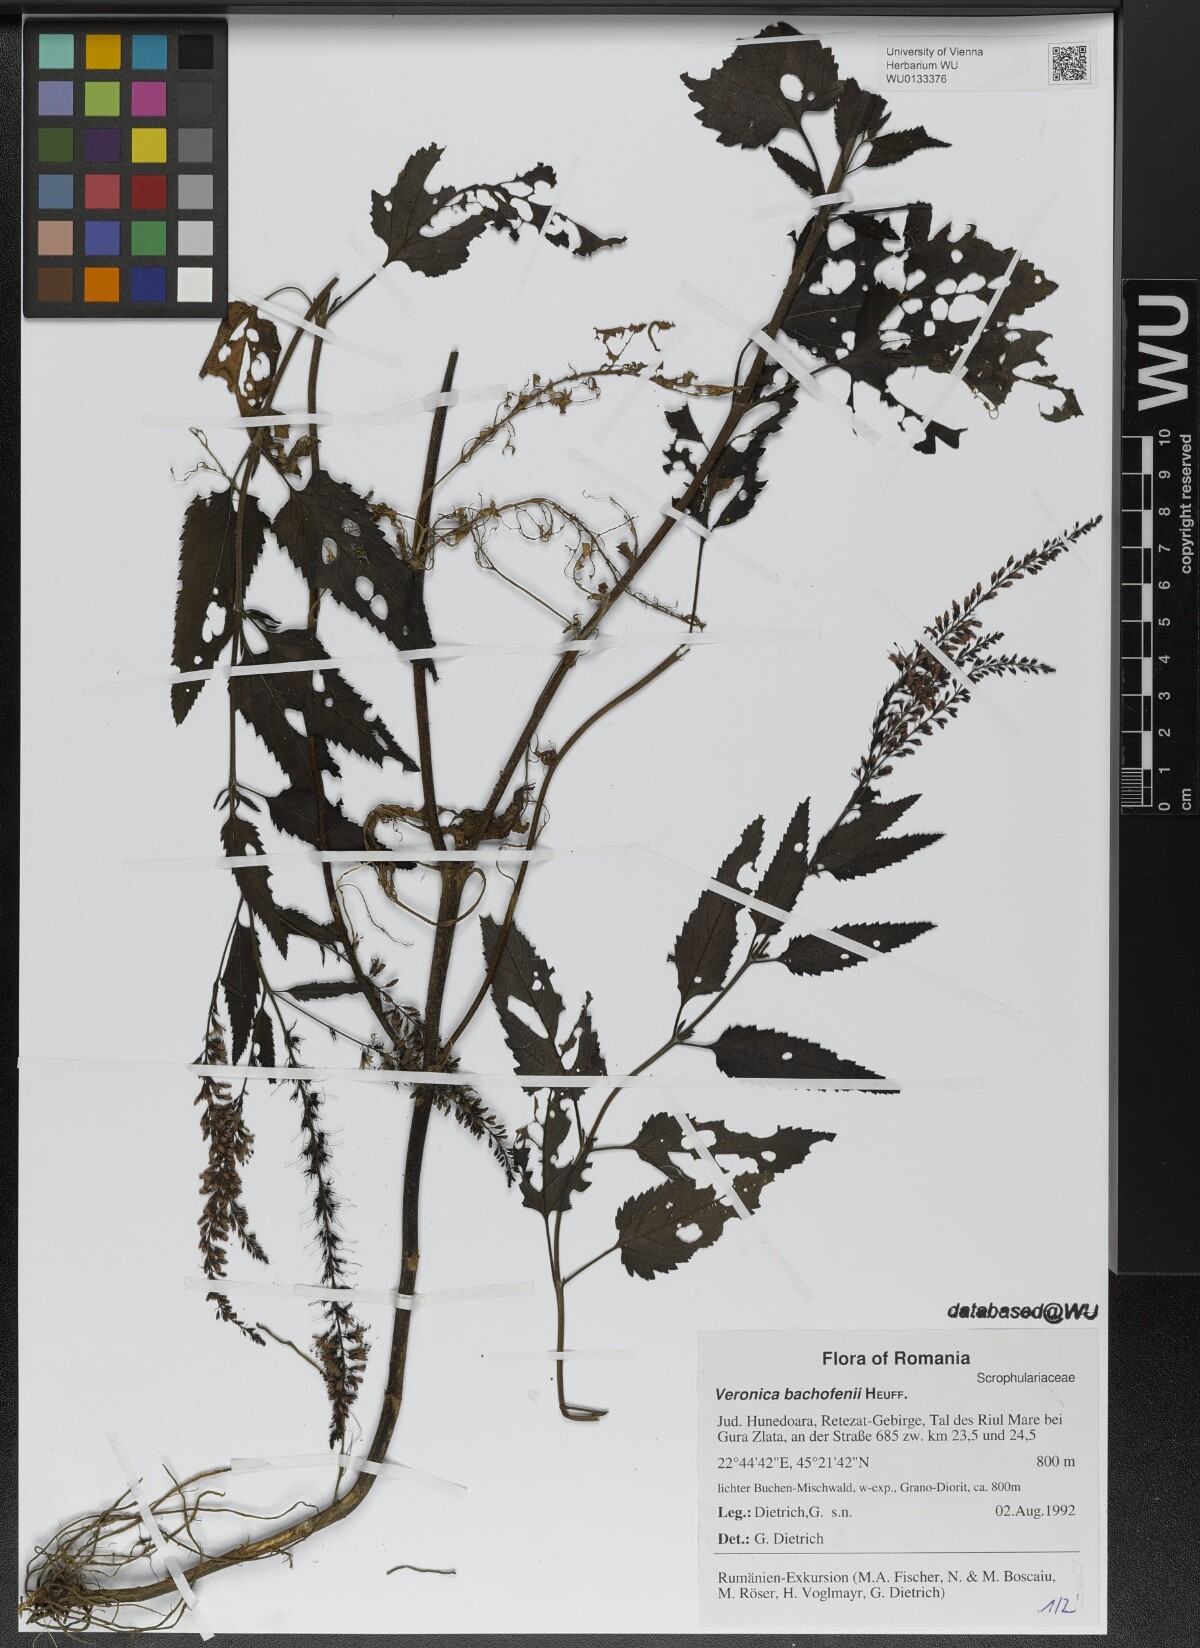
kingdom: Plantae
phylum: Tracheophyta
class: Magnoliopsida
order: Lamiales
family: Plantaginaceae
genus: Veronica
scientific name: Veronica bachofenii
